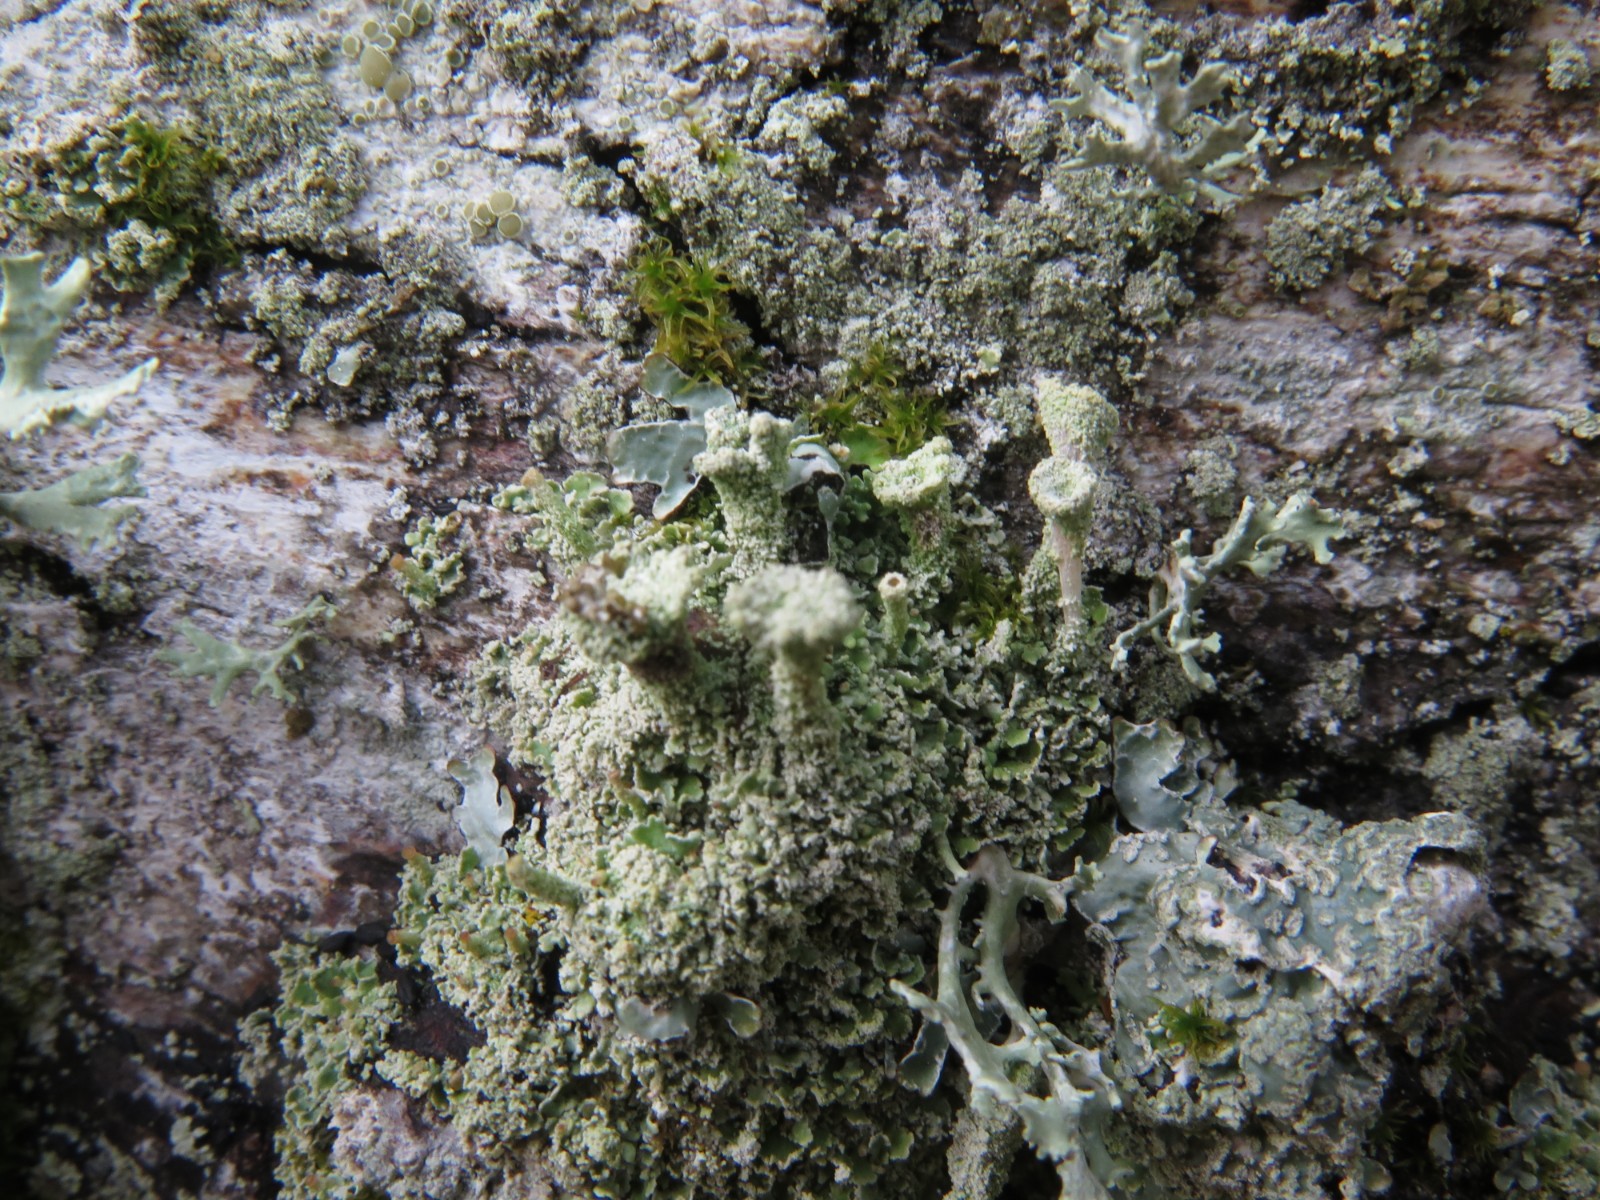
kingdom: Fungi
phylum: Ascomycota
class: Lecanoromycetes
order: Lecanorales
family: Cladoniaceae
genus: Cladonia
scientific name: Cladonia
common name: brungrøn bægerlav
